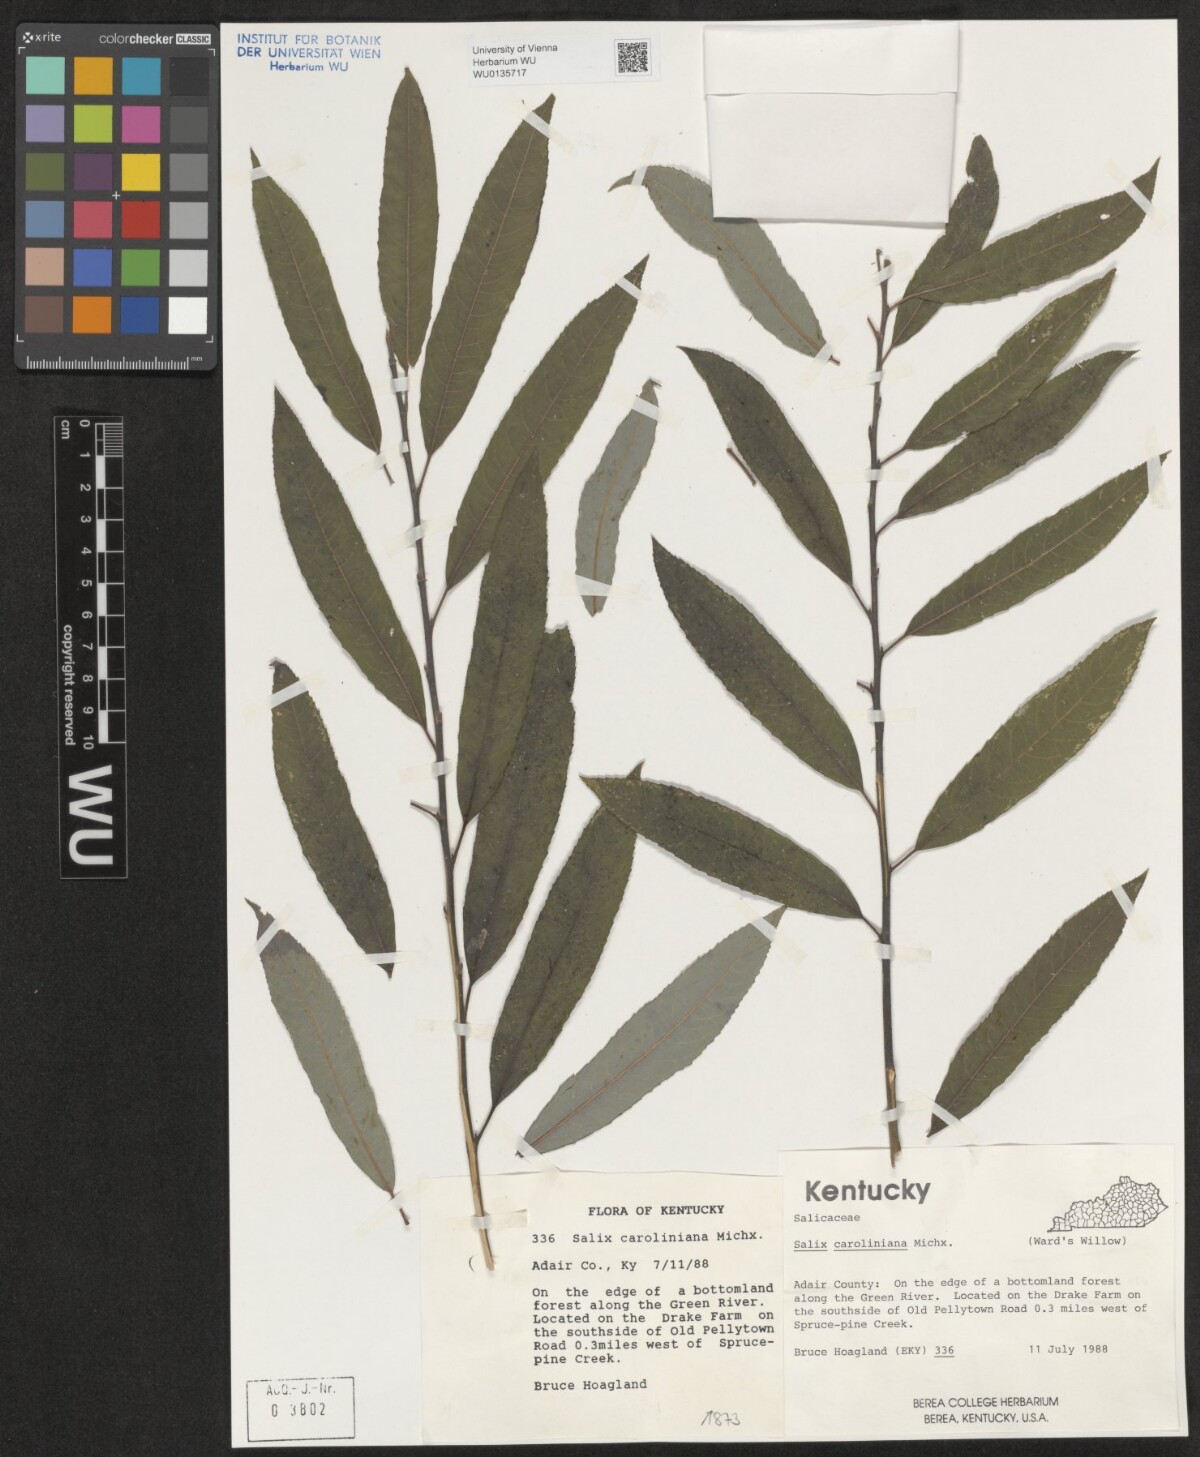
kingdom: Plantae
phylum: Tracheophyta
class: Magnoliopsida
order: Malpighiales
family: Salicaceae
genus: Salix
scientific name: Salix caroliniana
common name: Carolina willow
